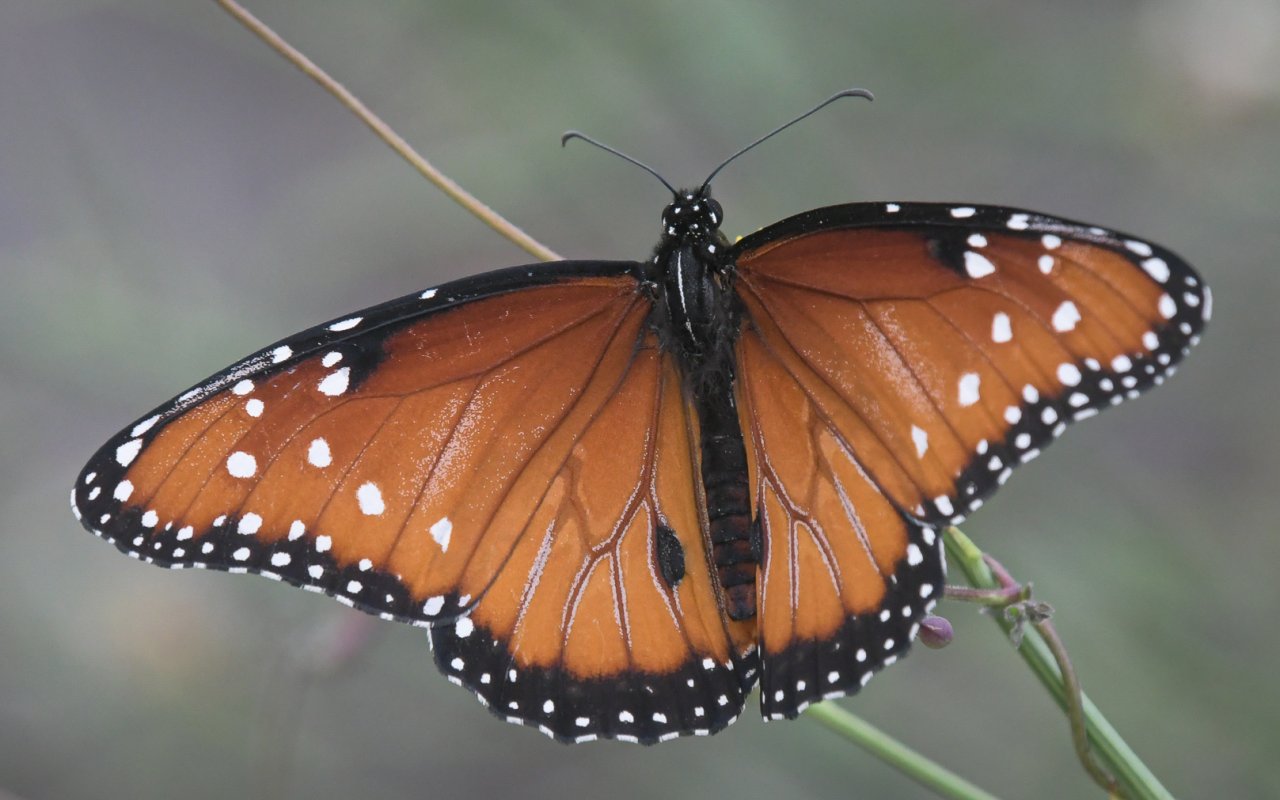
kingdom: Animalia
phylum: Arthropoda
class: Insecta
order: Lepidoptera
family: Nymphalidae
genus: Danaus
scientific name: Danaus gilippus
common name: Queen
